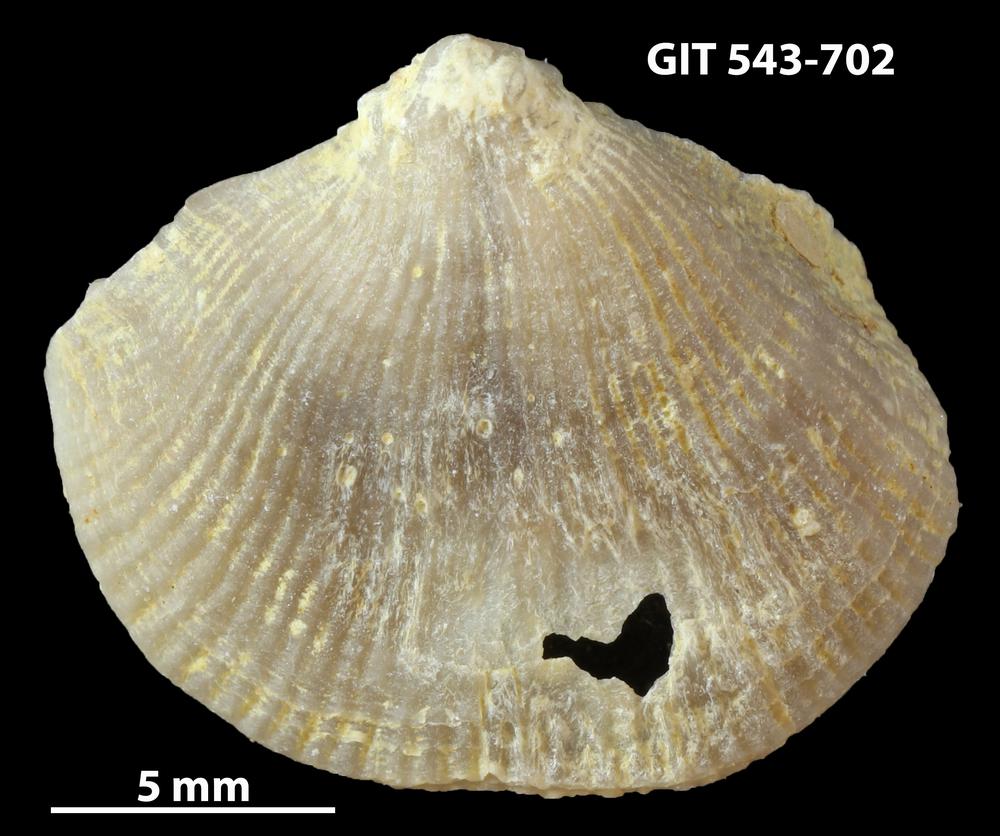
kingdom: Animalia
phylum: Brachiopoda
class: Rhynchonellata
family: Clitambonitidae
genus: Vellamo
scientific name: Vellamo oandoensis
